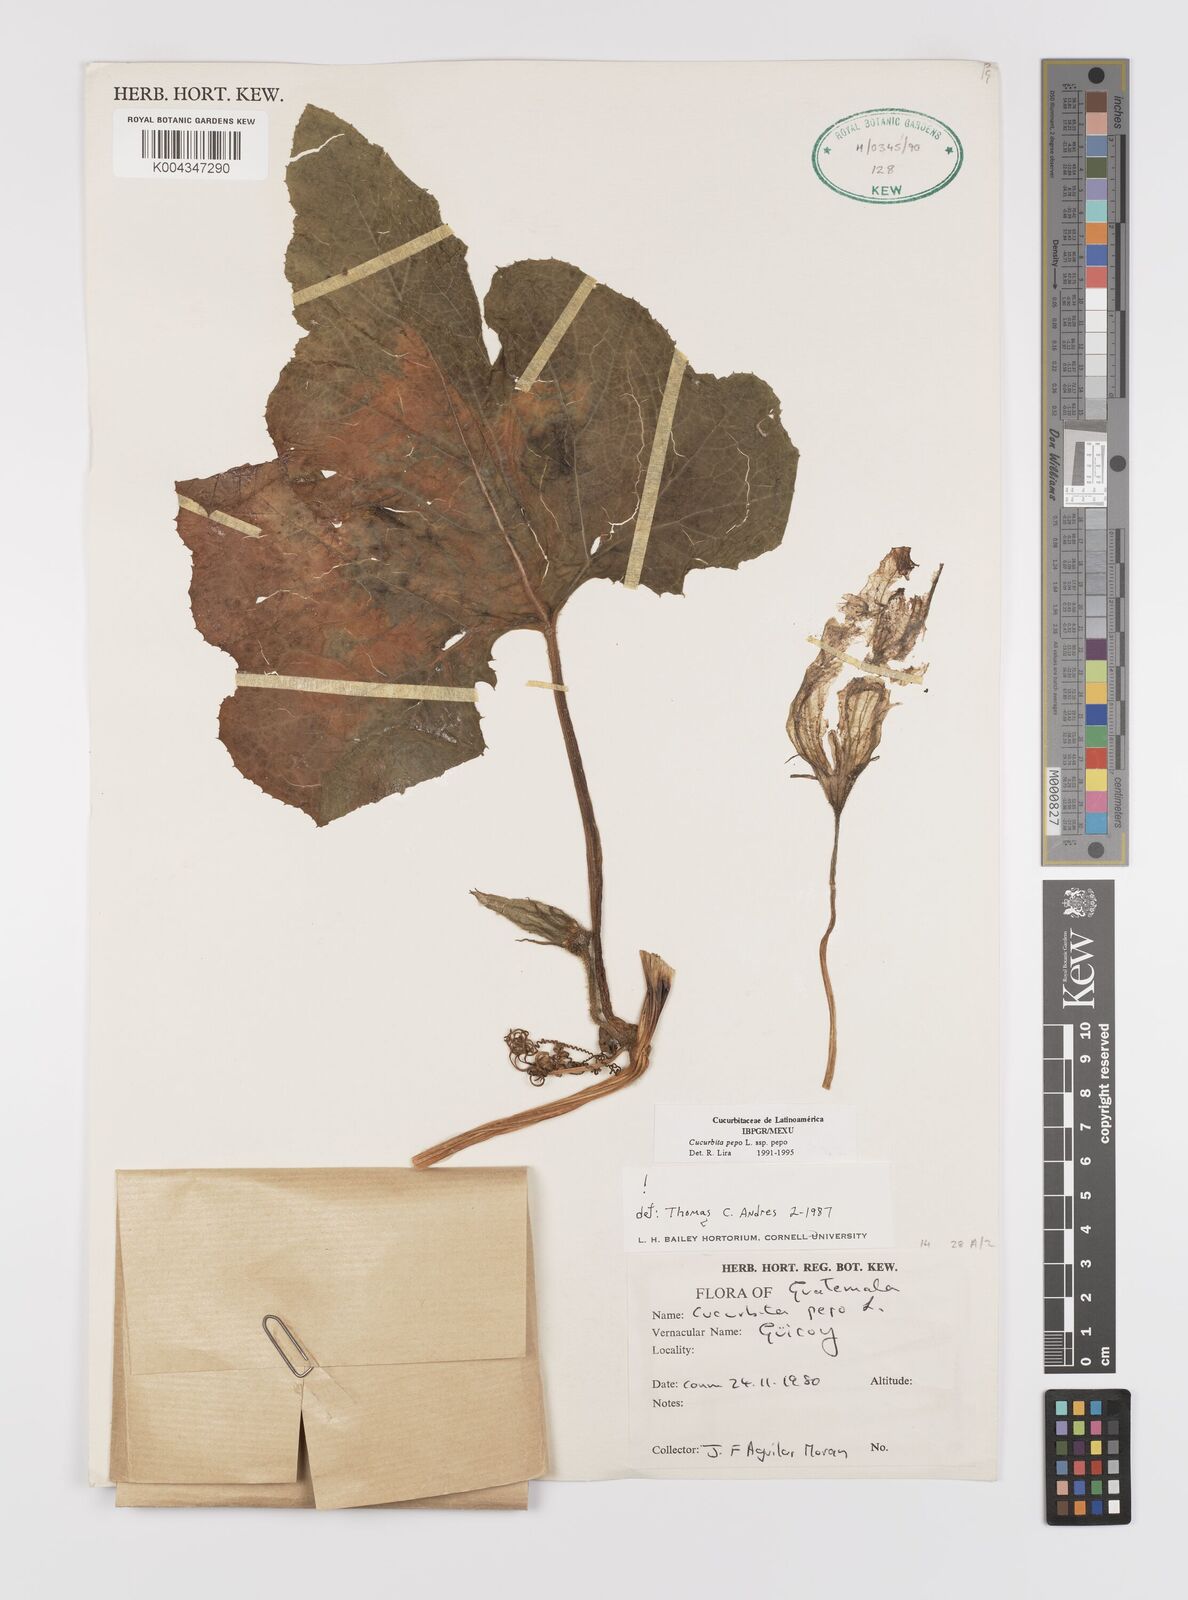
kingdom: Plantae
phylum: Tracheophyta
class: Magnoliopsida
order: Cucurbitales
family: Cucurbitaceae
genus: Cucurbita
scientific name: Cucurbita pepo
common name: Marrow
